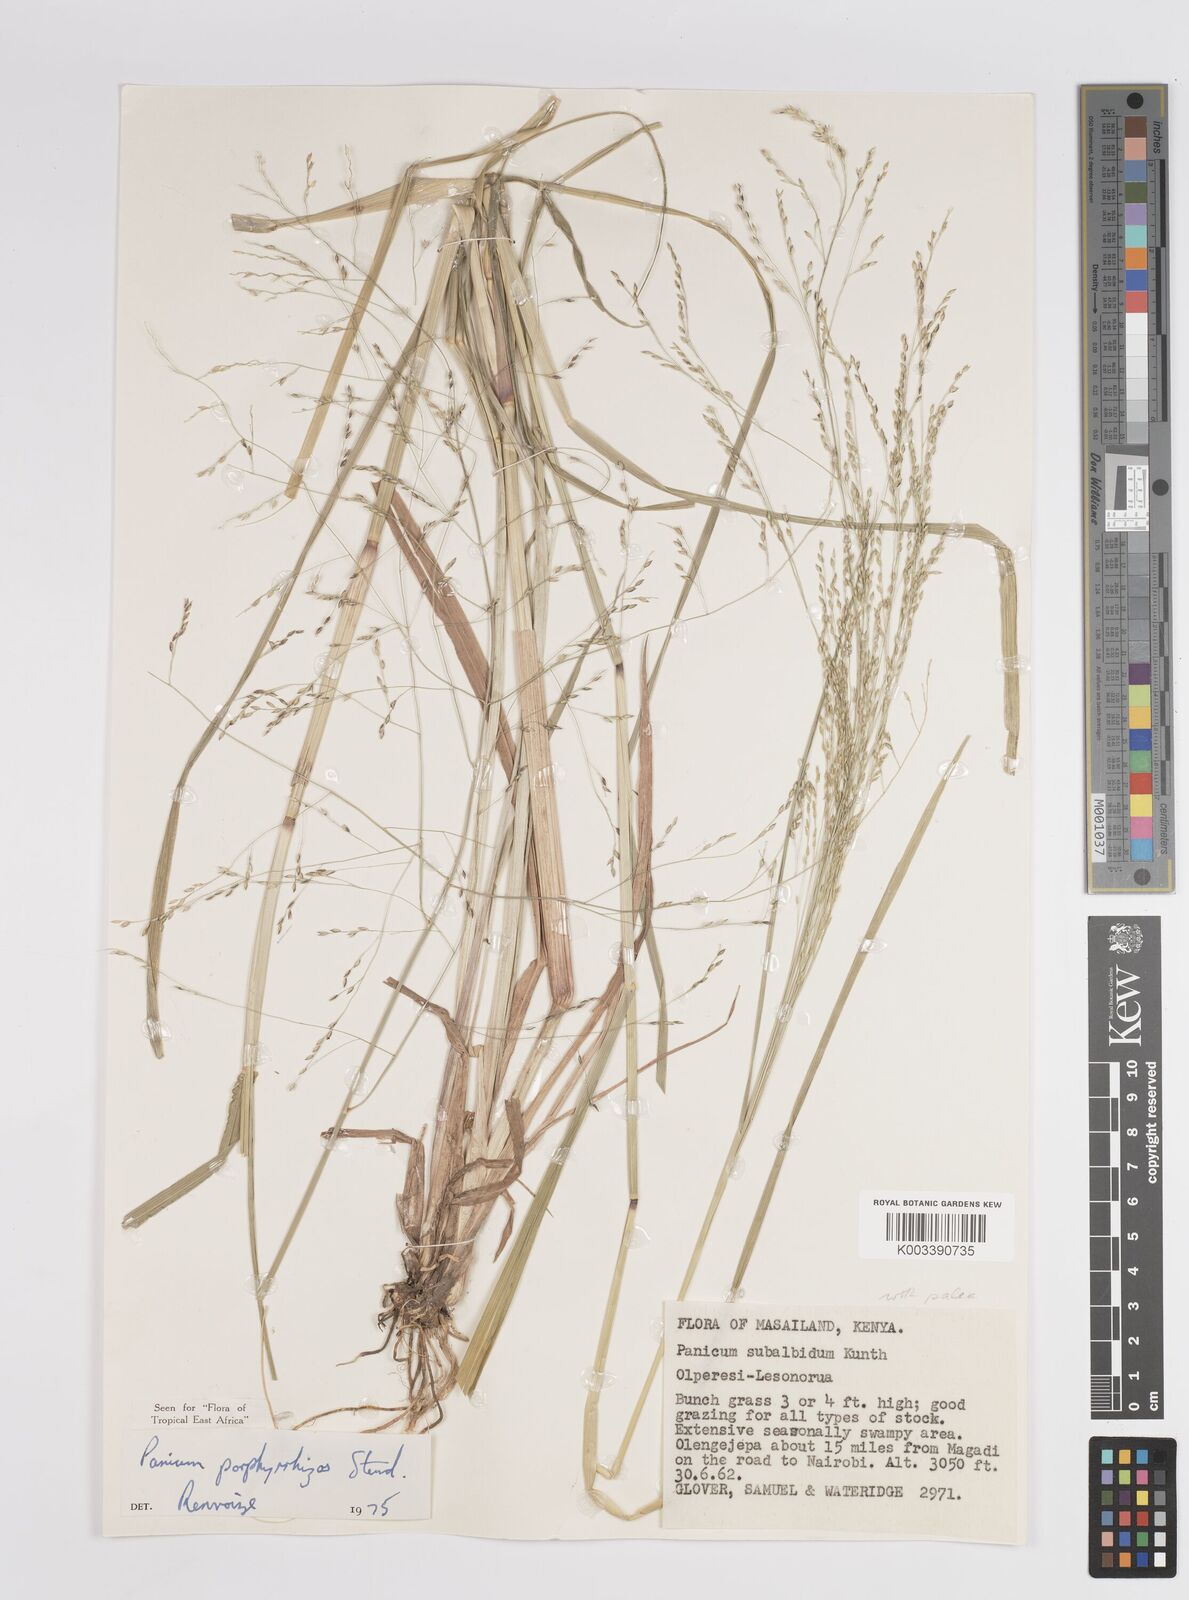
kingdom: Plantae
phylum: Tracheophyta
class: Liliopsida
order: Poales
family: Poaceae
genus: Panicum
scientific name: Panicum porphyrrhizos
